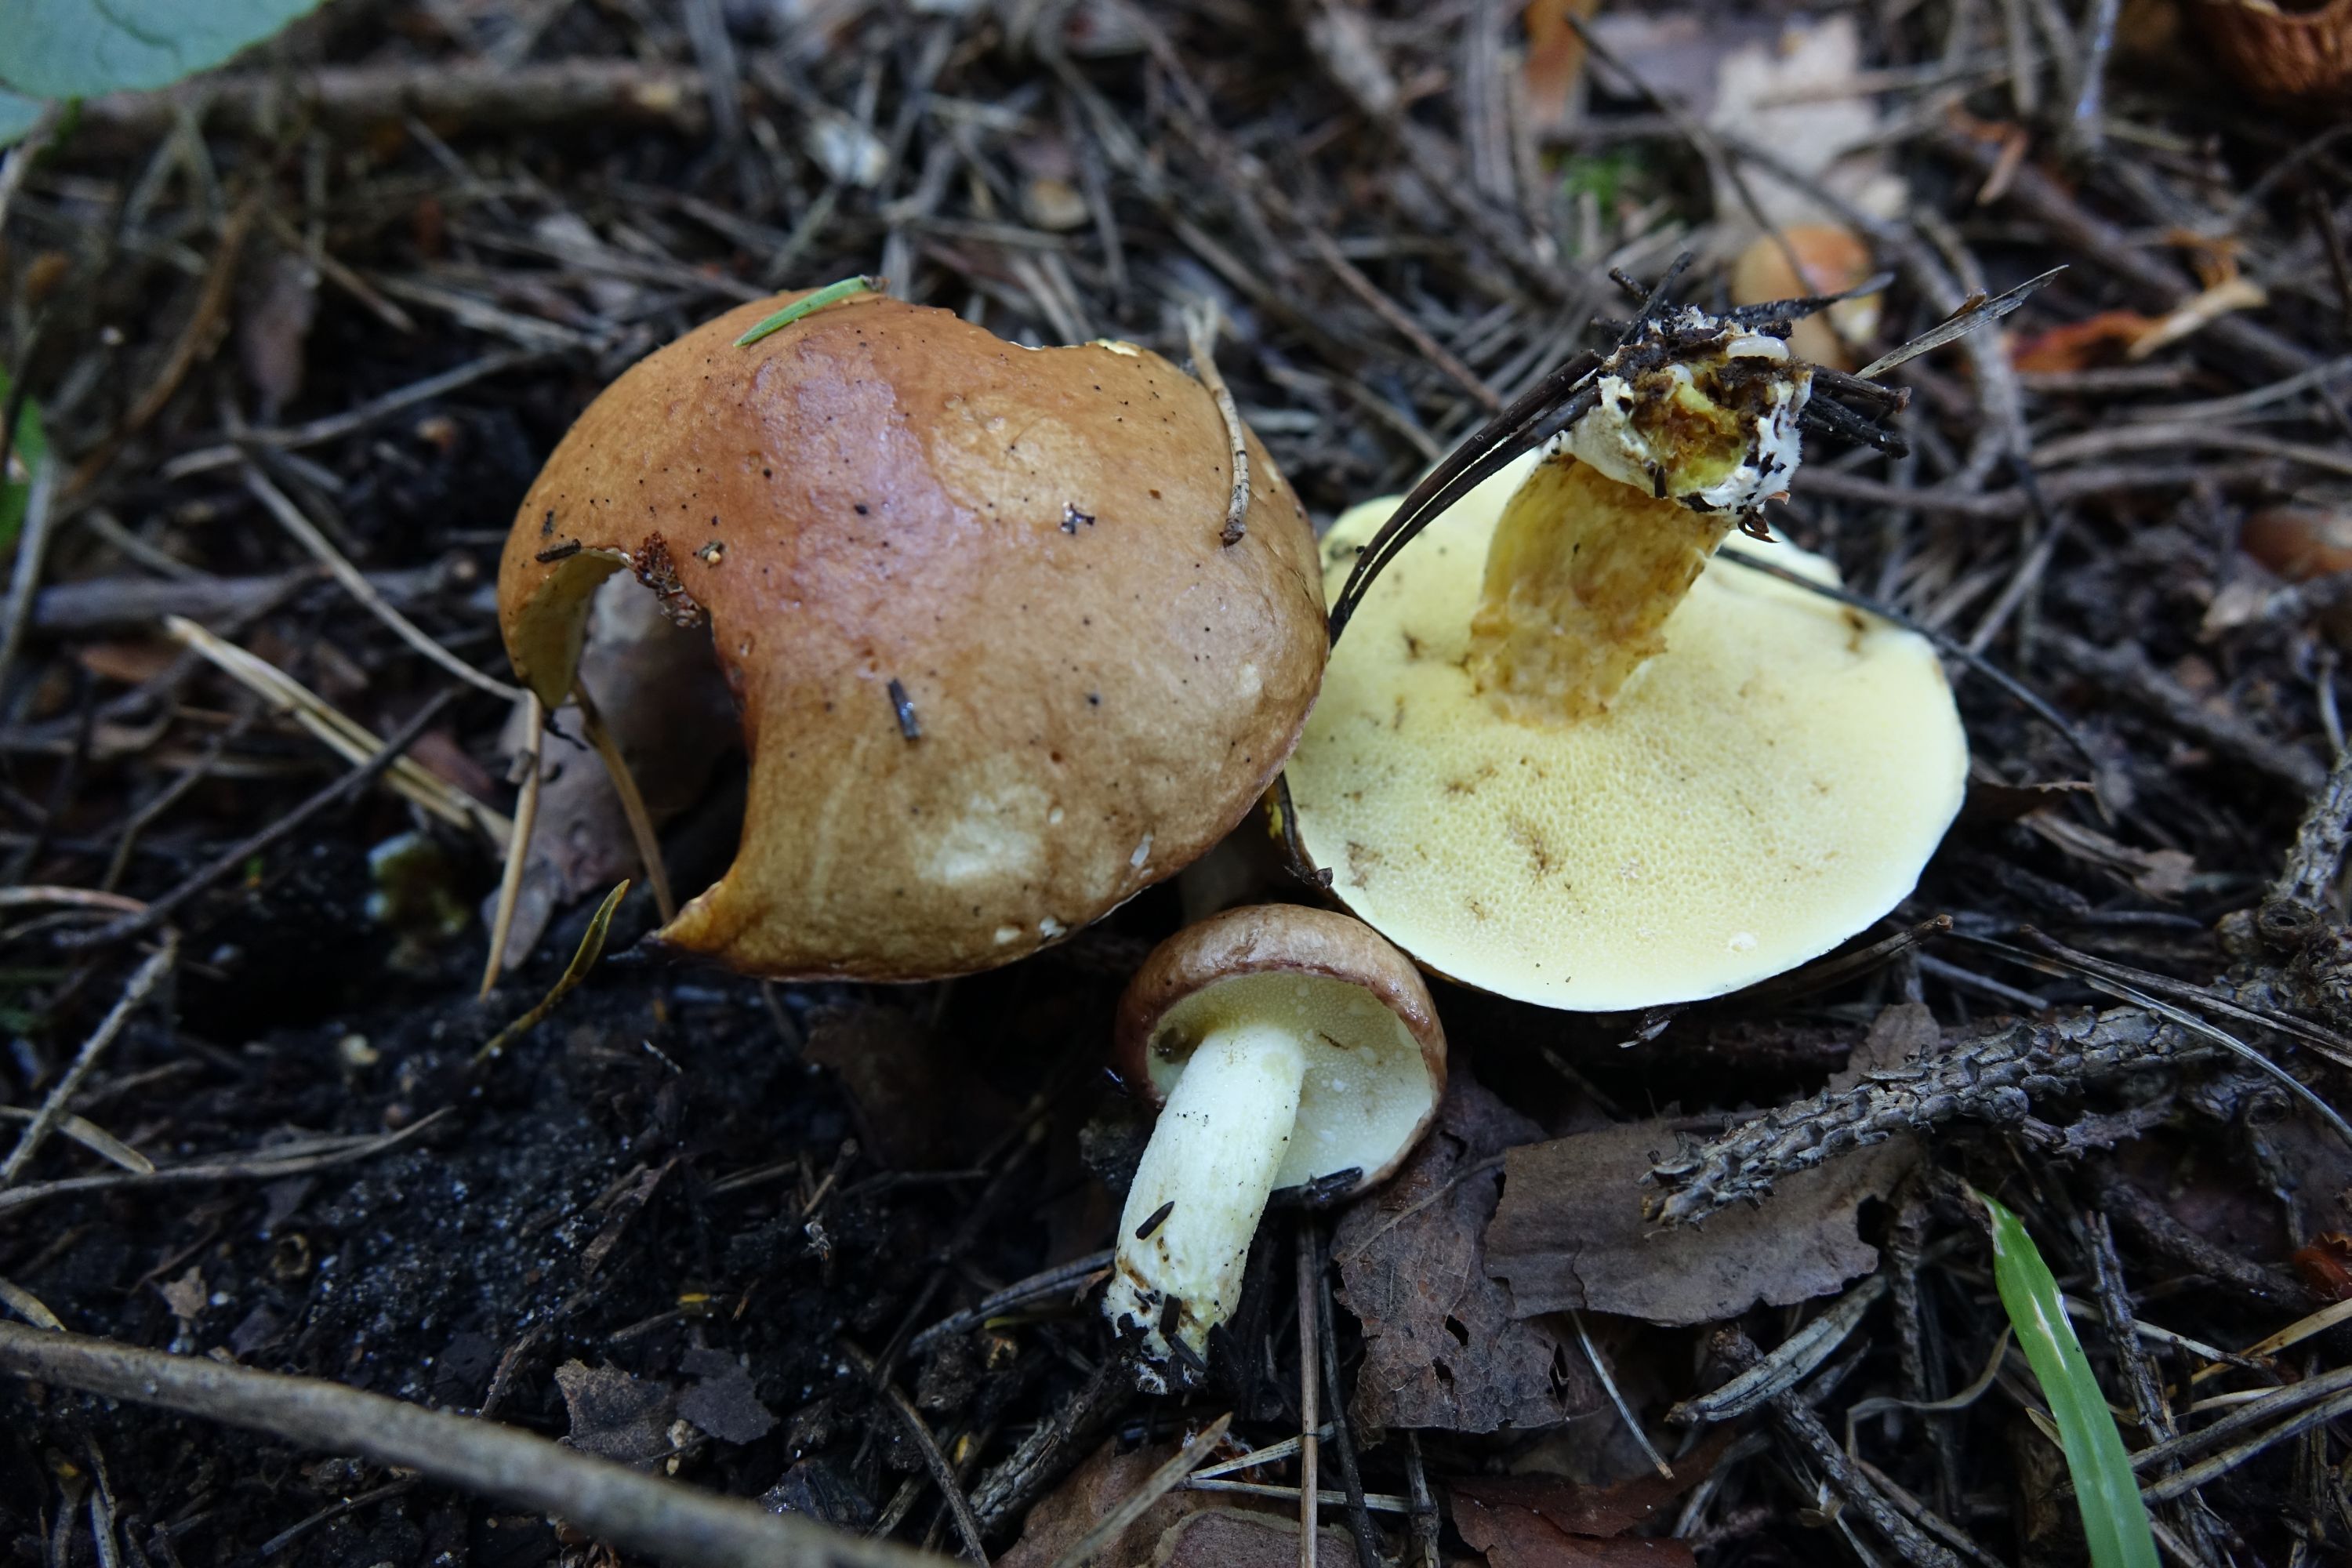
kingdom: Fungi
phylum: Basidiomycota
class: Agaricomycetes
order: Boletales
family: Suillaceae
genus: Suillus
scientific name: Suillus granulatus
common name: Weeping bolete
